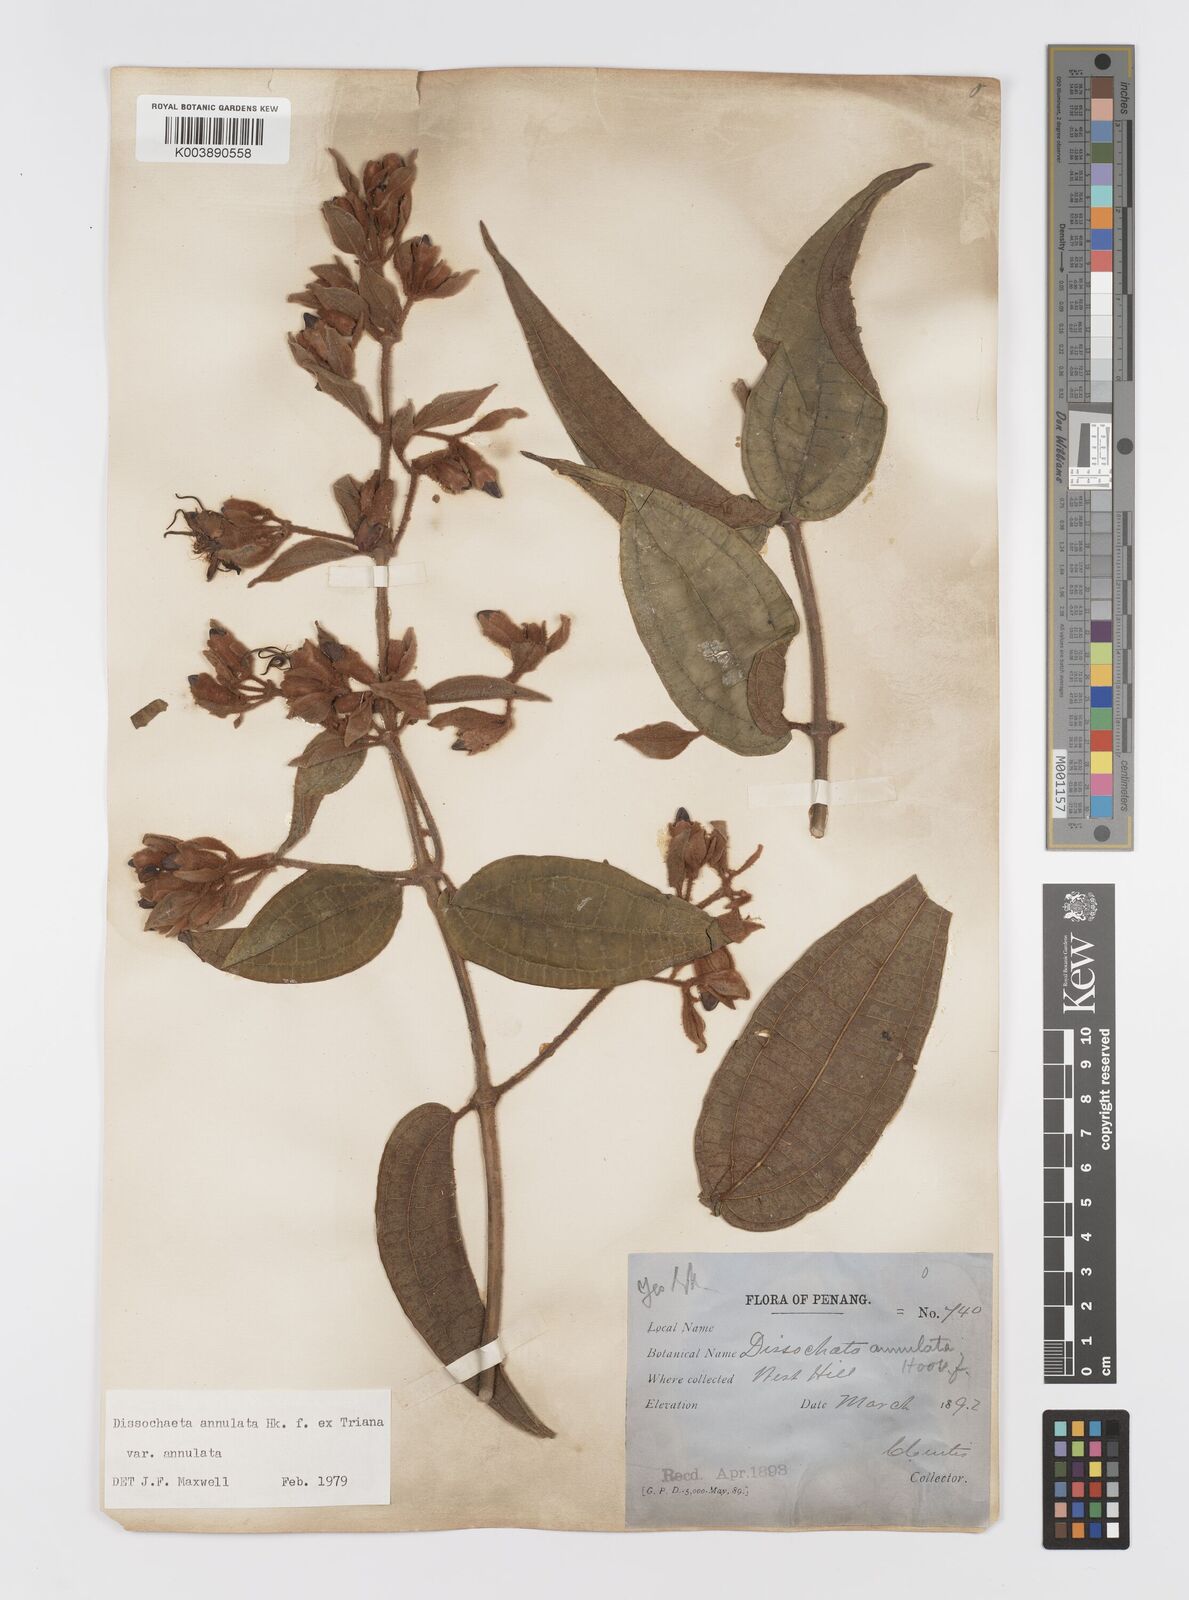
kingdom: Plantae
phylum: Tracheophyta
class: Magnoliopsida
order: Myrtales
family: Melastomataceae
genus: Dissochaeta
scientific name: Dissochaeta annulata
